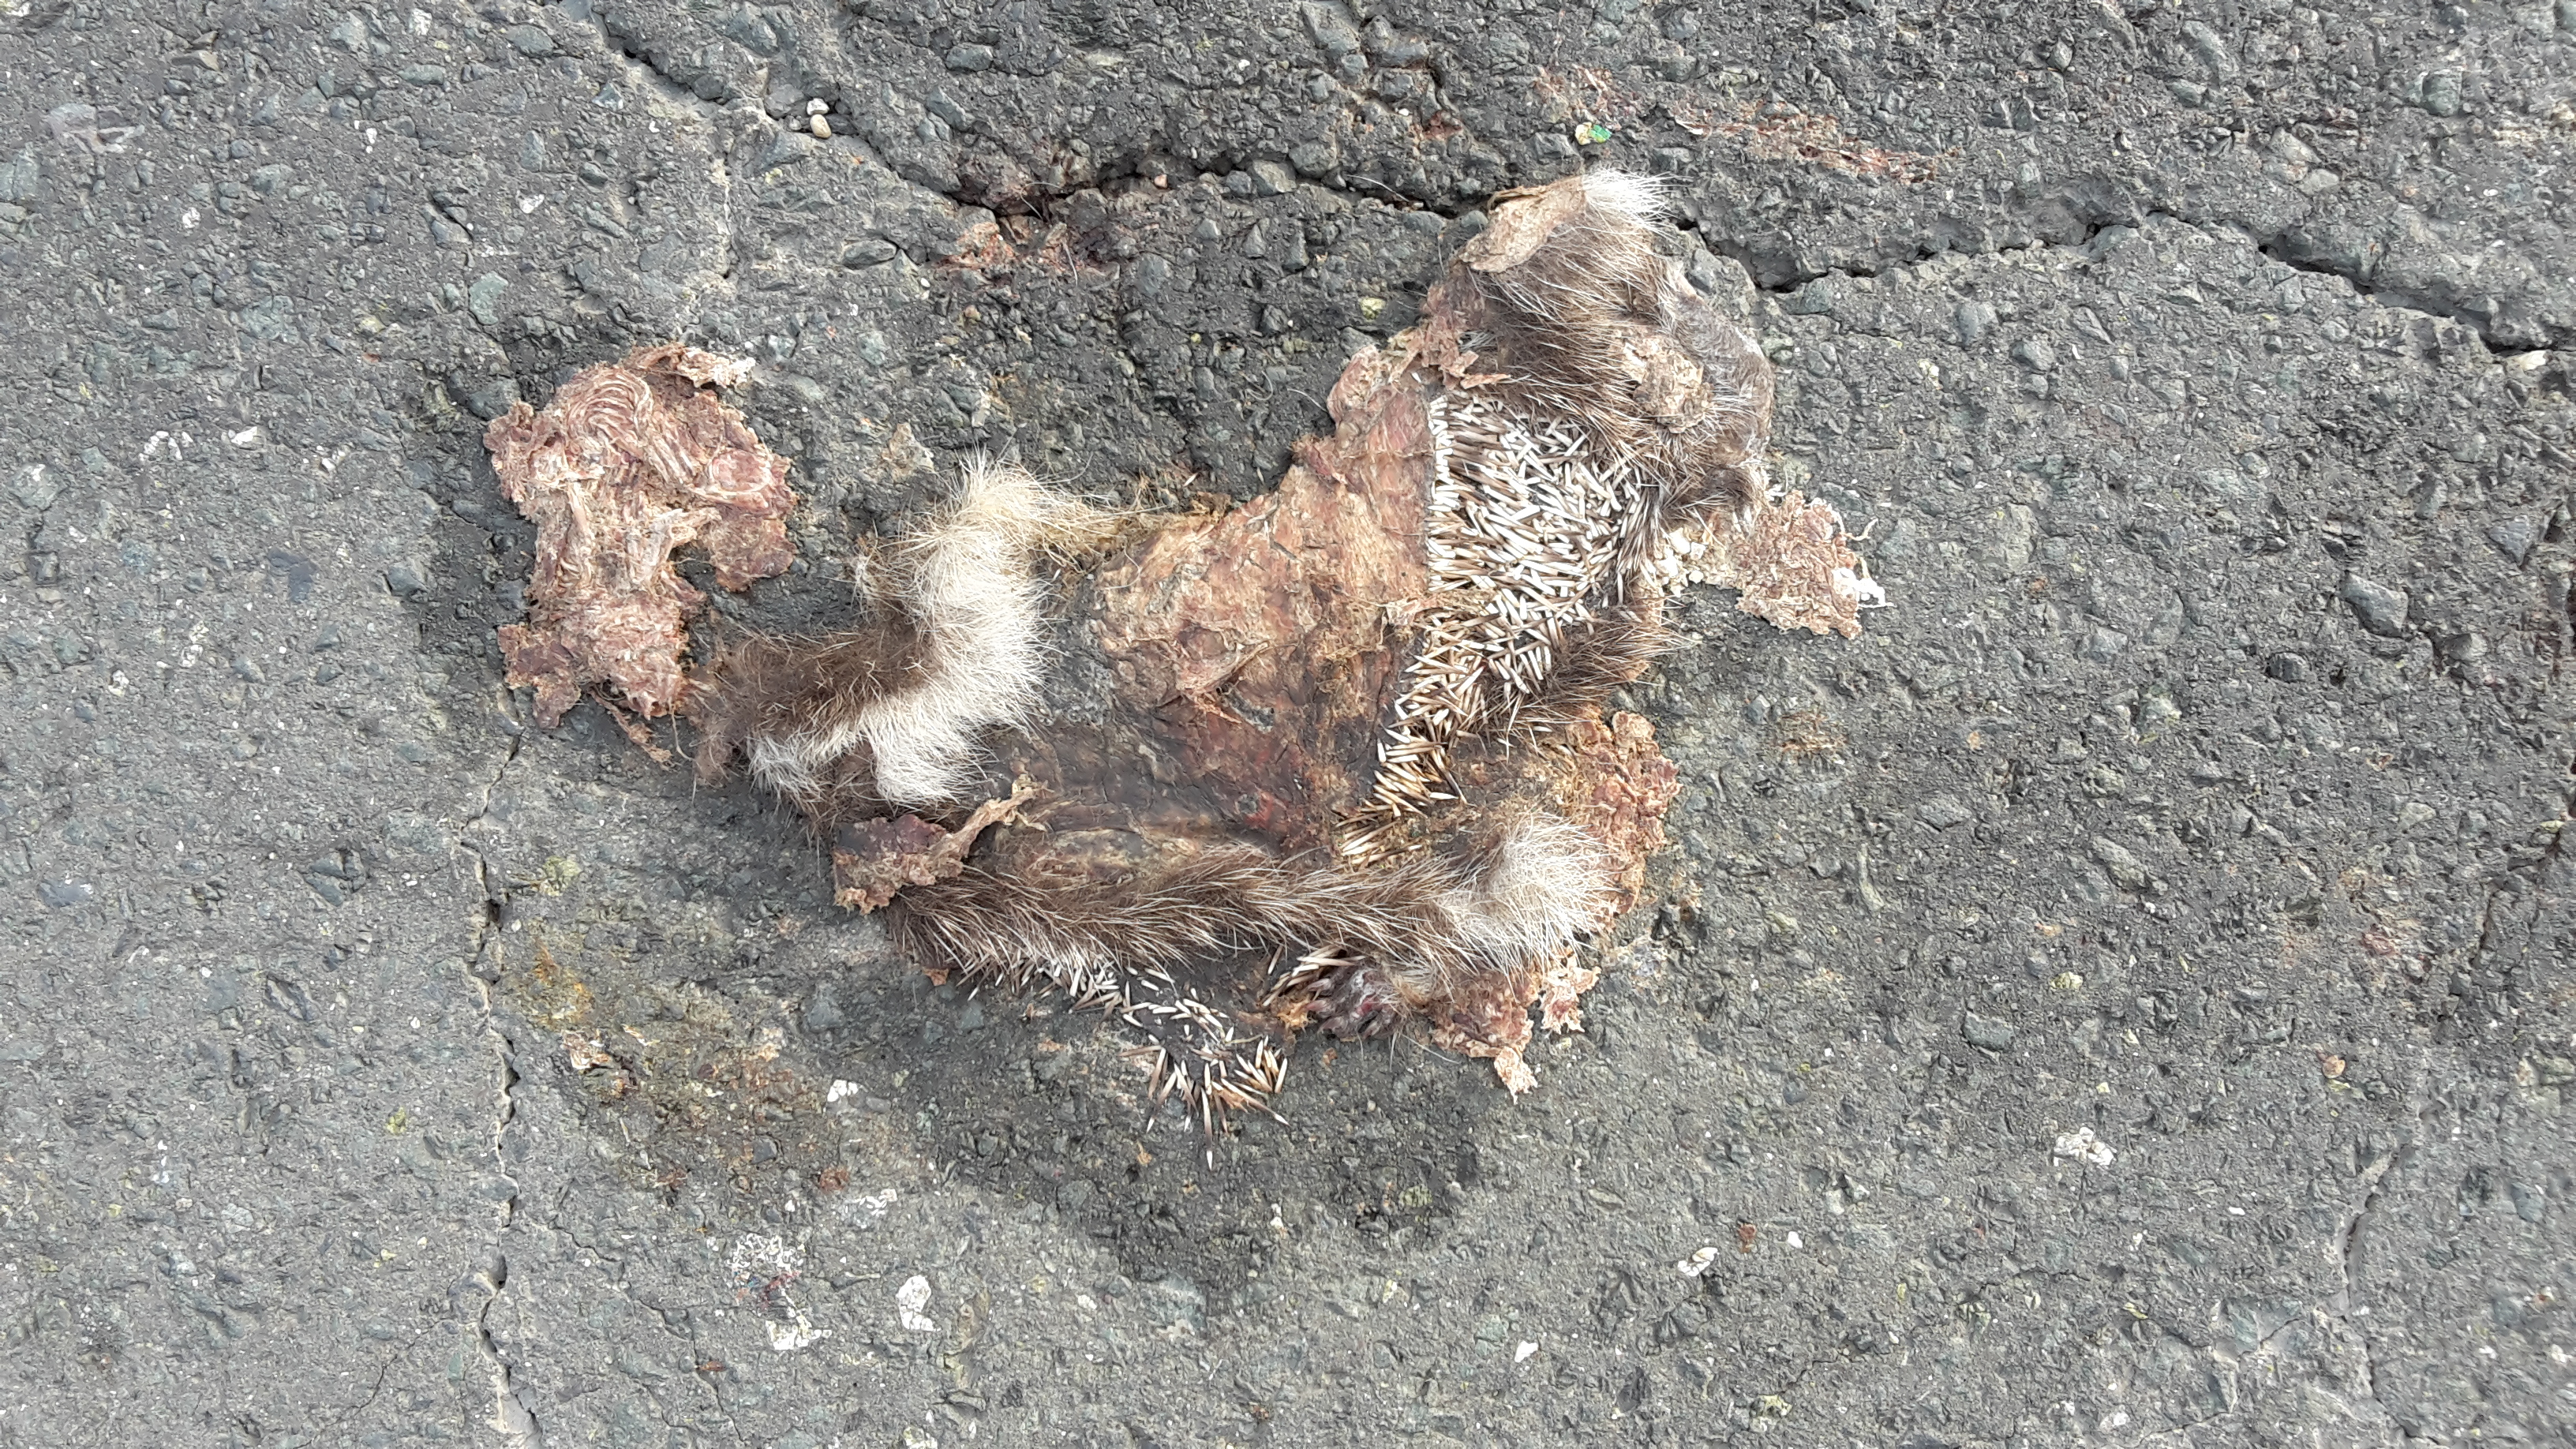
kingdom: Animalia
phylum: Chordata
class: Mammalia
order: Erinaceomorpha
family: Erinaceidae
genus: Erinaceus
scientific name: Erinaceus
